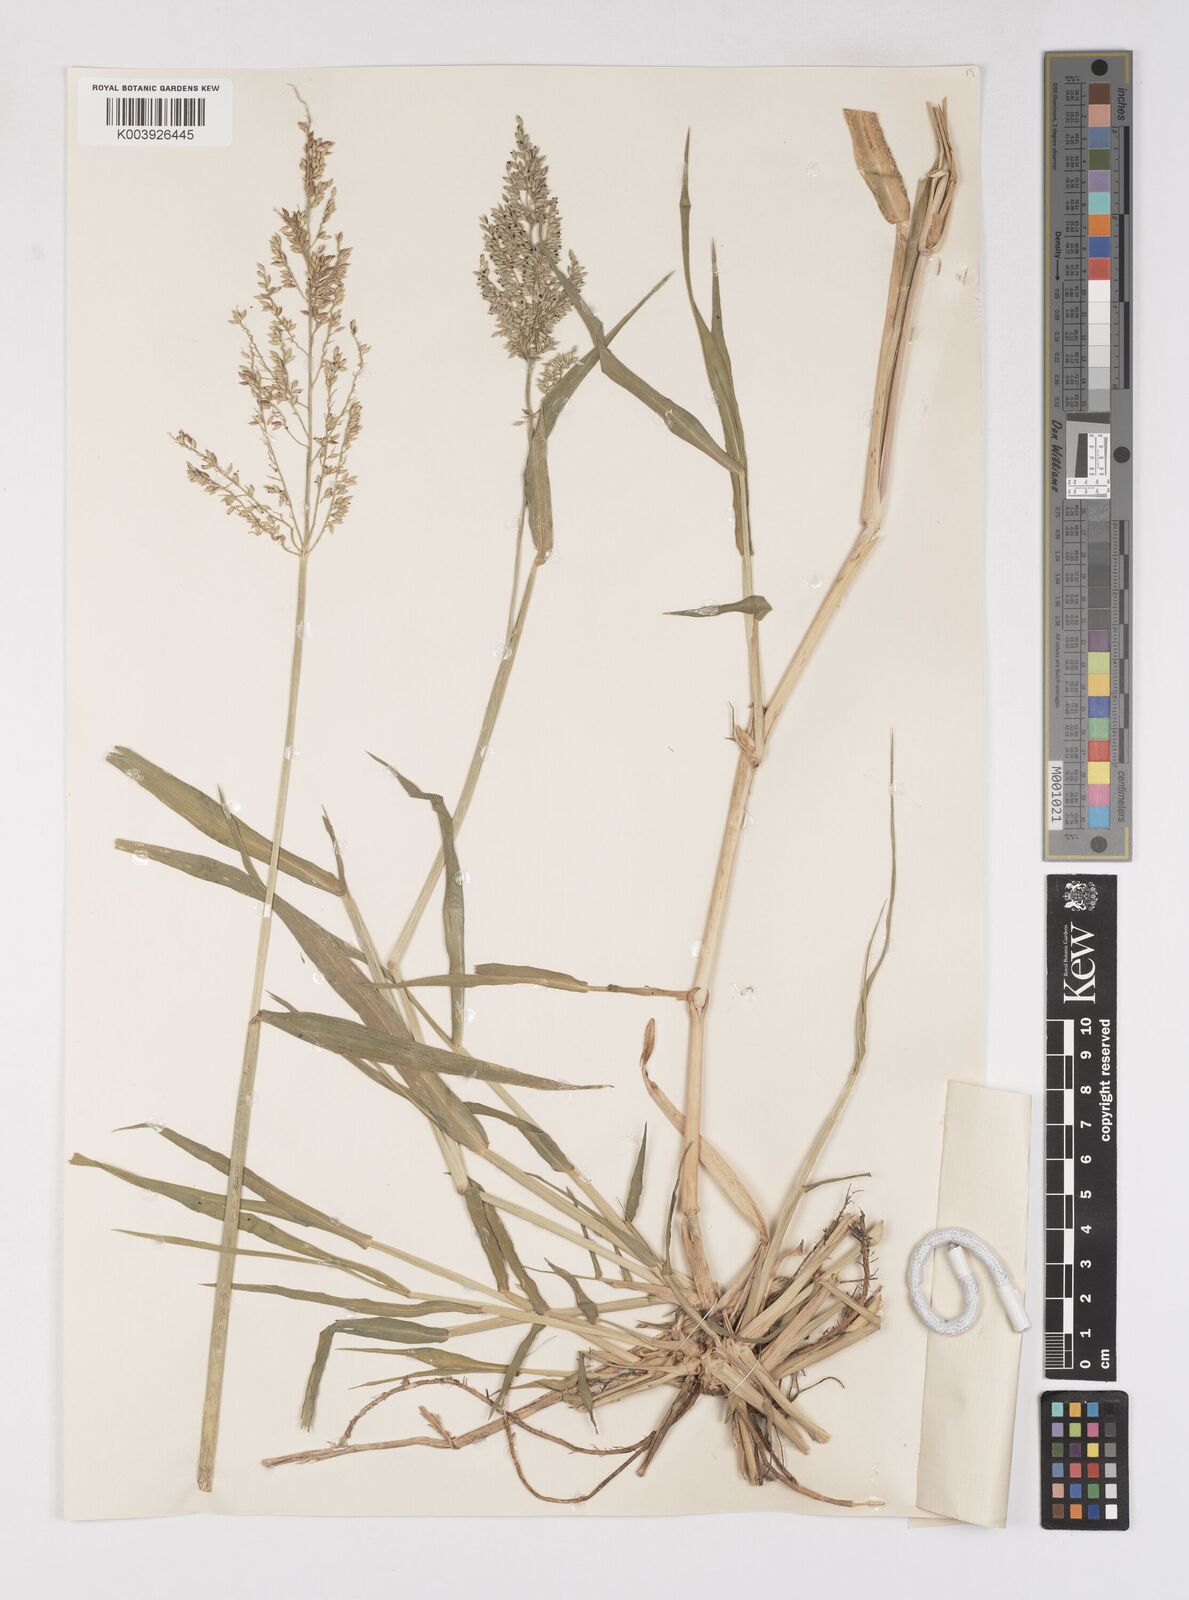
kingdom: Plantae
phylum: Tracheophyta
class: Liliopsida
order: Poales
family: Poaceae
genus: Eriochloa
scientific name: Eriochloa meyeriana
